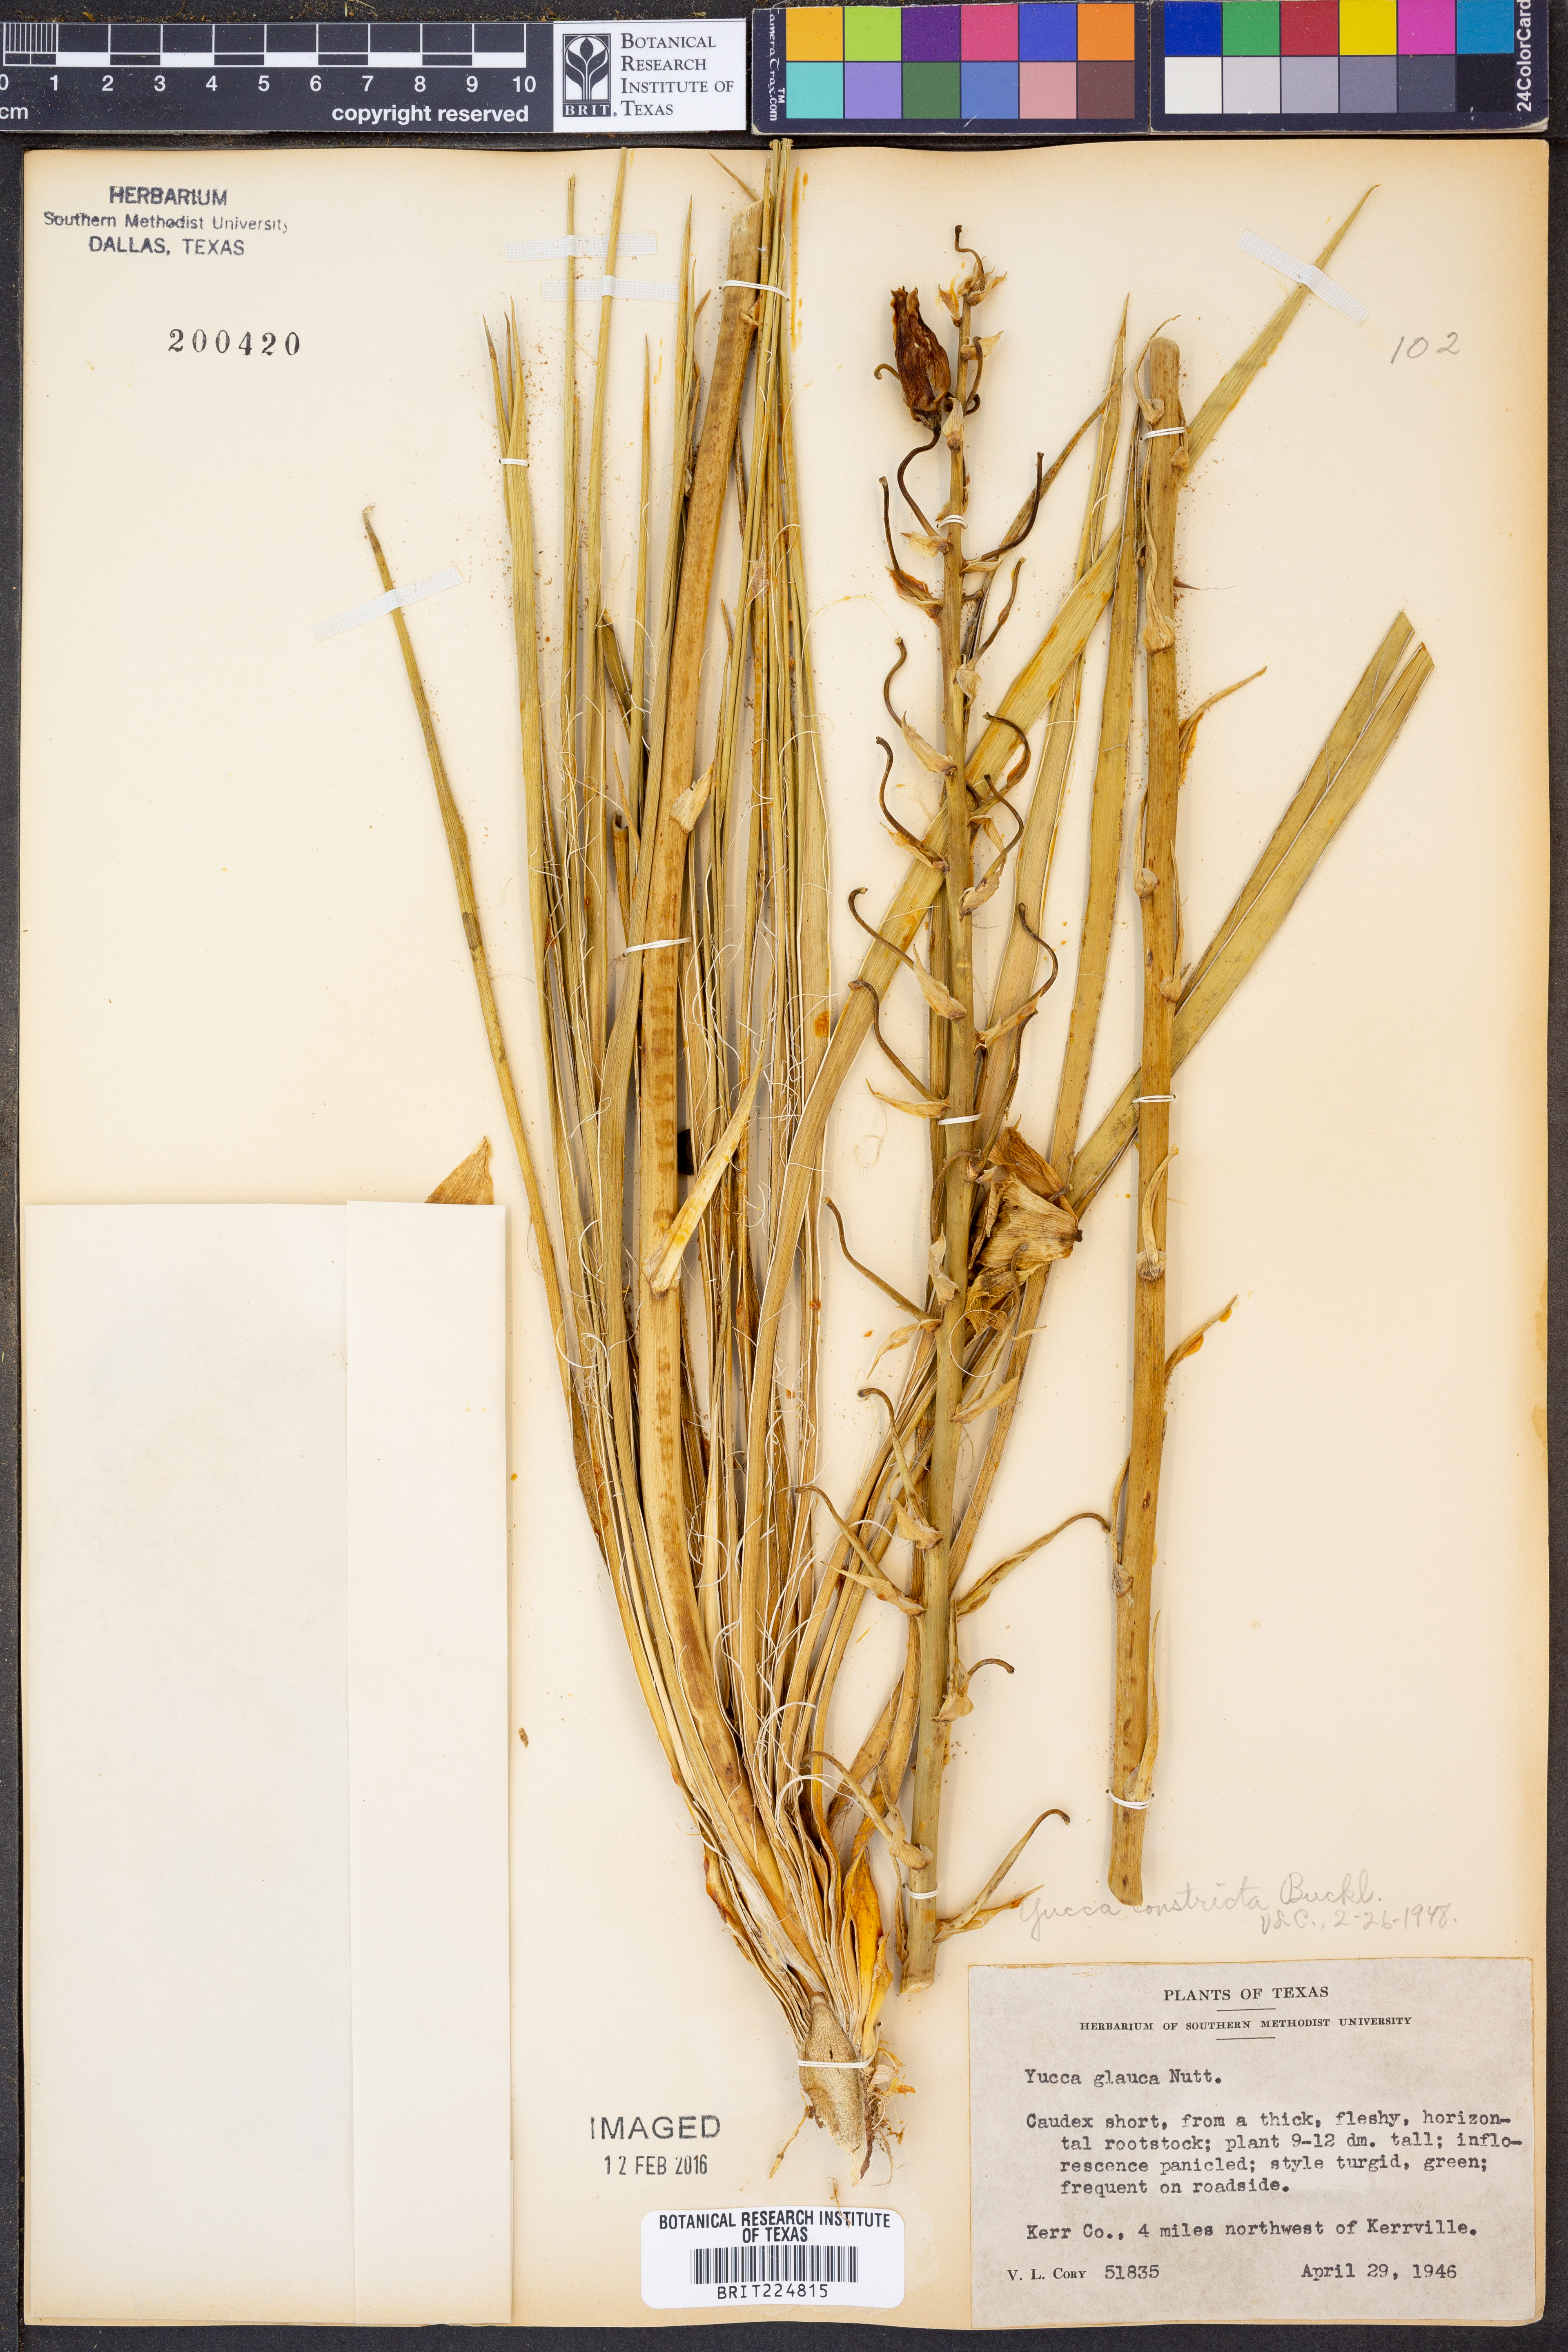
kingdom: Plantae
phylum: Tracheophyta
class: Liliopsida
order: Asparagales
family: Asparagaceae
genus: Yucca
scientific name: Yucca constricta
